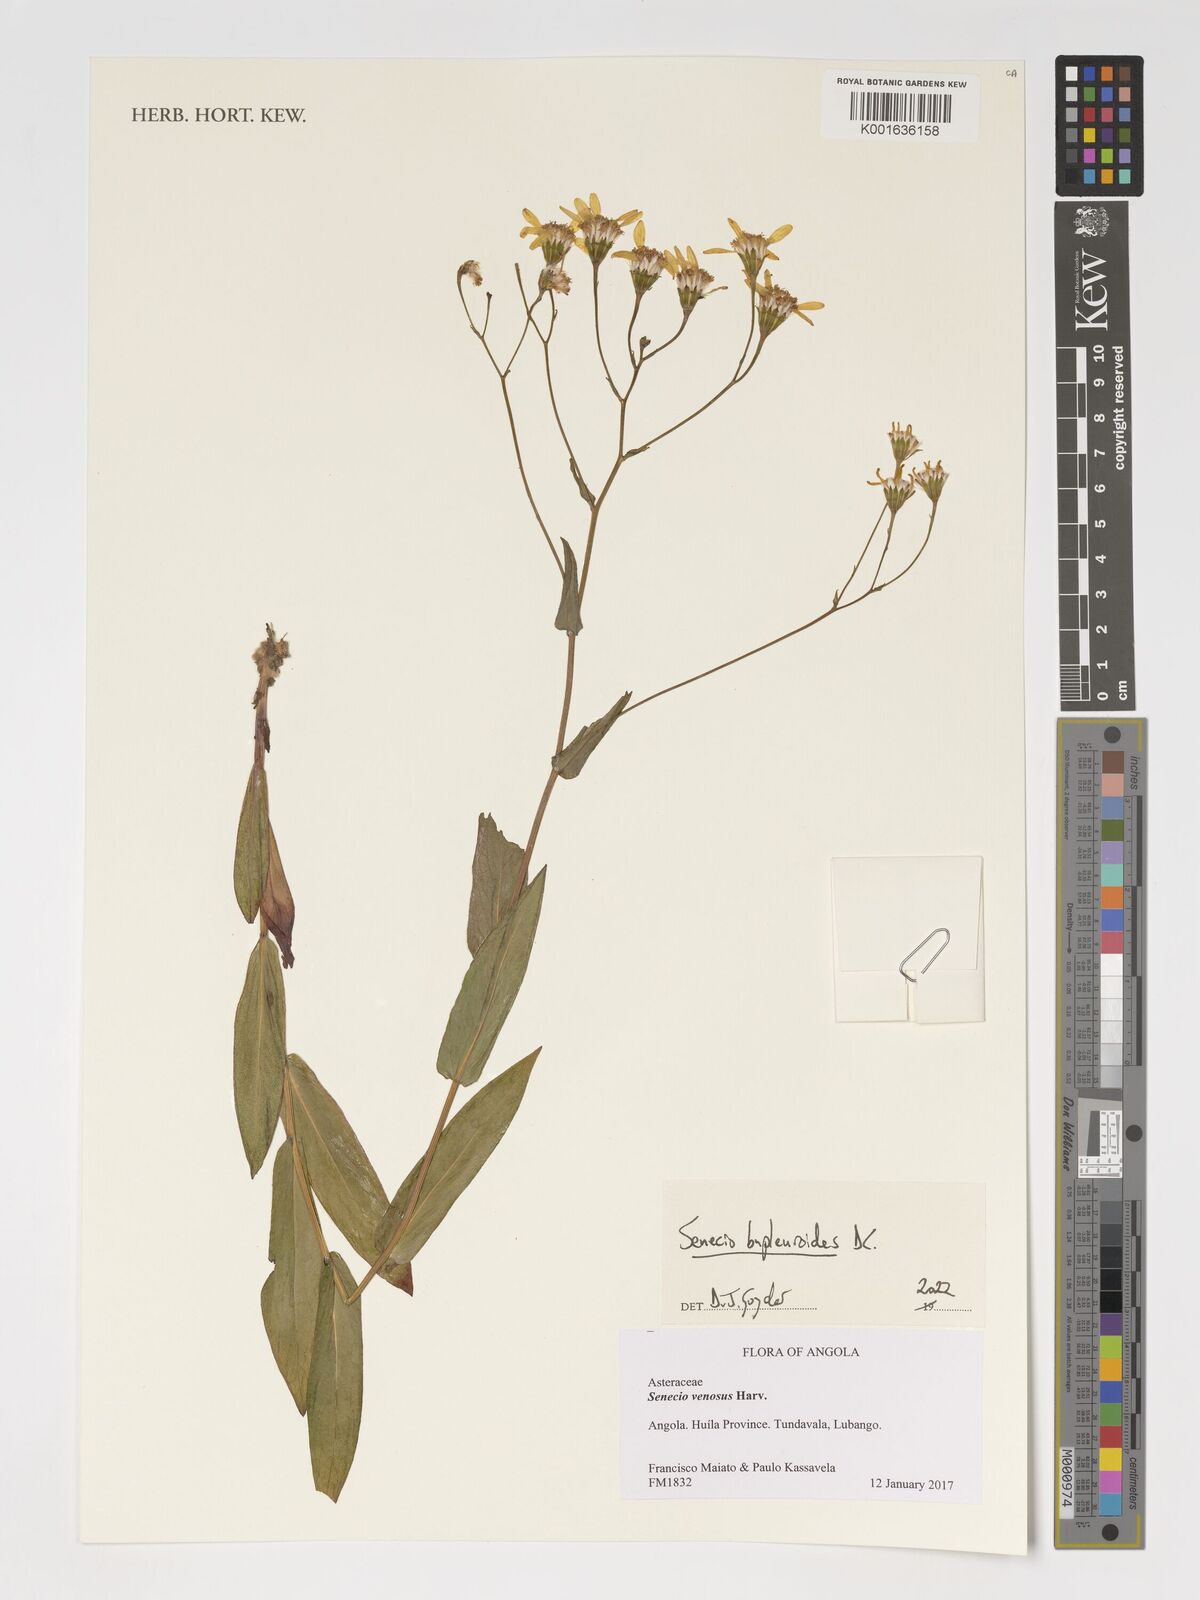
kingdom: Plantae
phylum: Tracheophyta
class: Magnoliopsida
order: Asterales
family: Asteraceae
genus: Senecio
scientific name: Senecio bupleuroides
